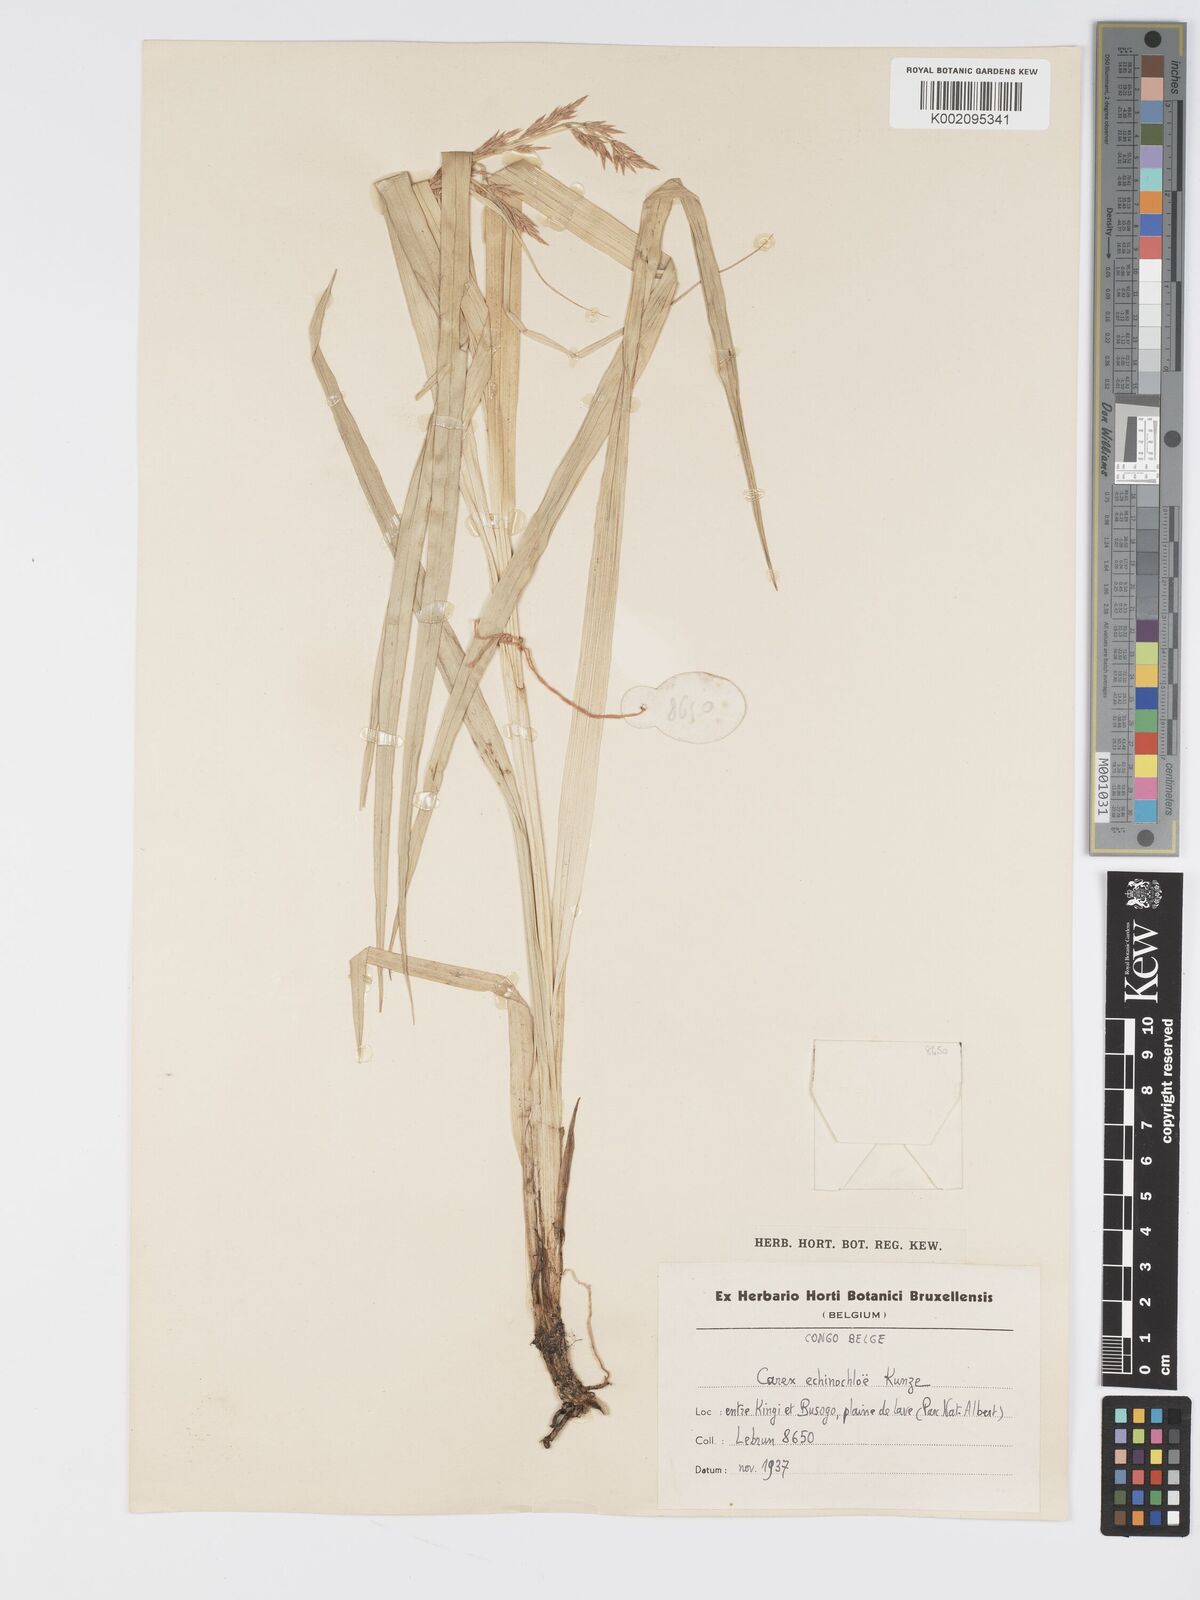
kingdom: Plantae
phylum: Tracheophyta
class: Liliopsida
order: Poales
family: Cyperaceae
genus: Carex
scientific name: Carex echinochloe
